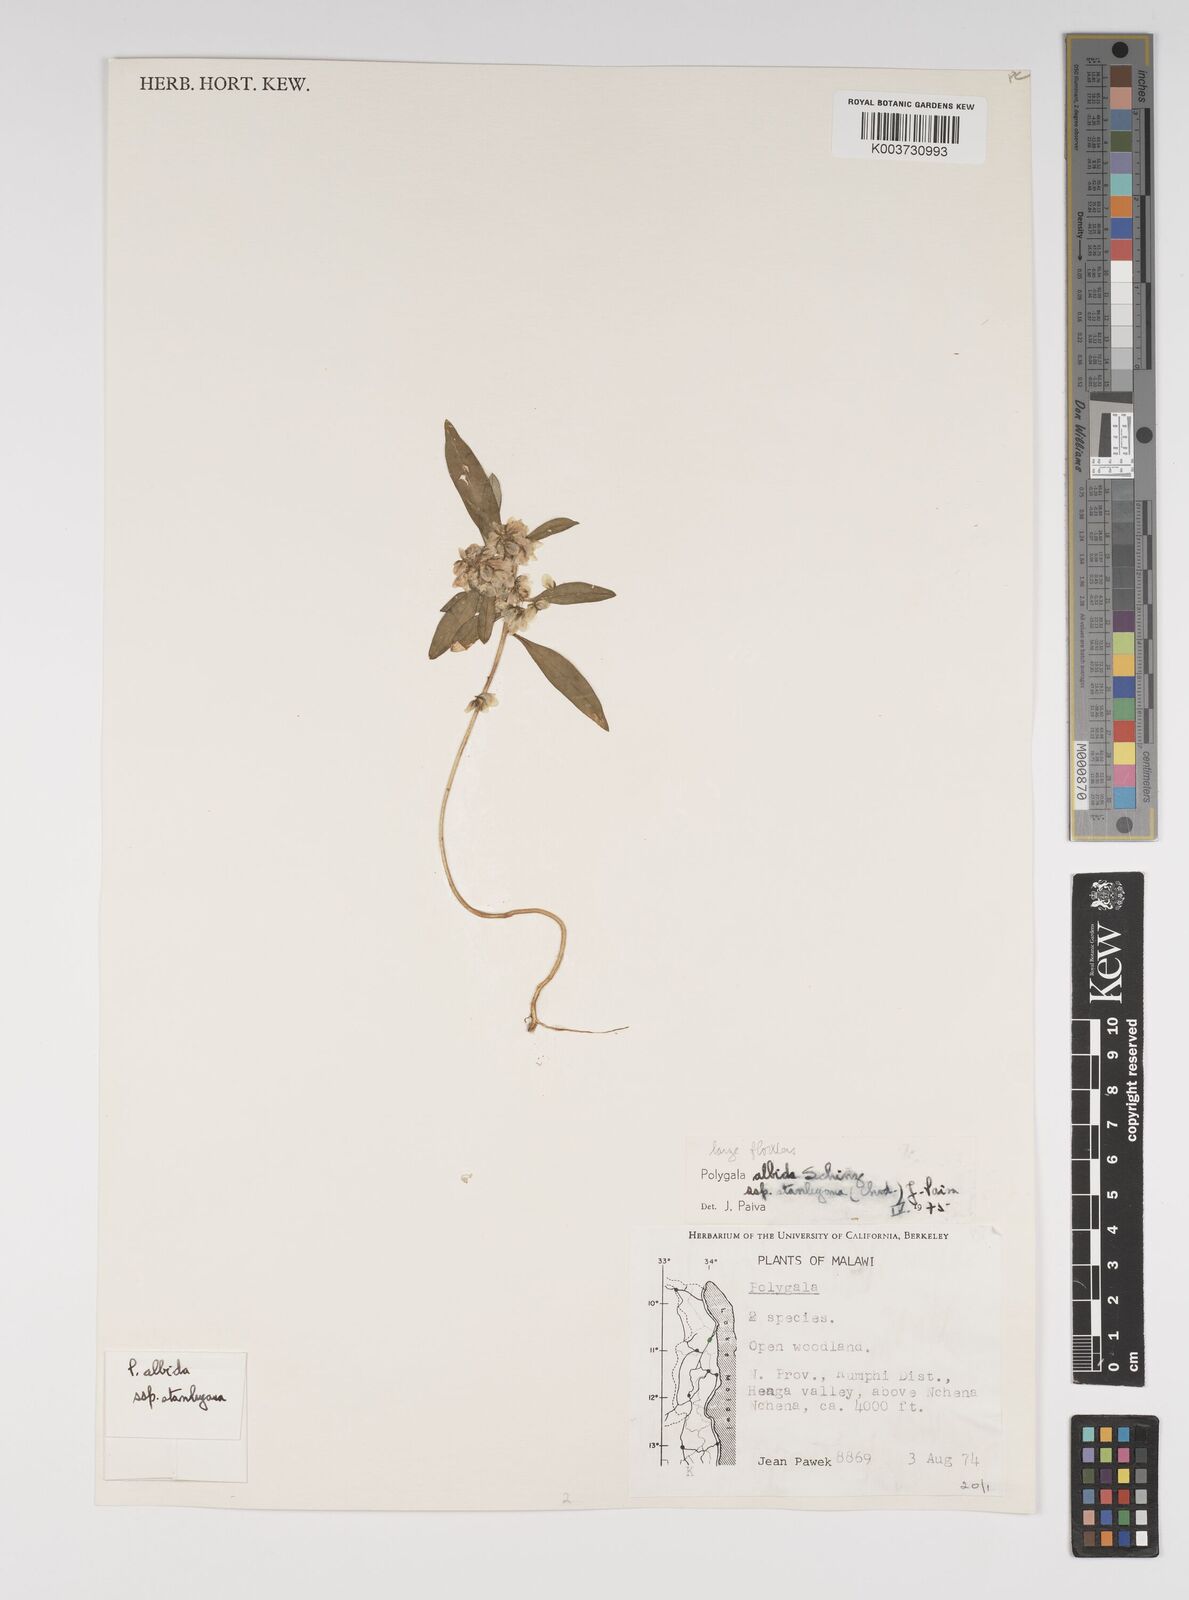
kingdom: Plantae
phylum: Tracheophyta
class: Magnoliopsida
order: Fabales
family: Polygalaceae
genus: Polygala
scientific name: Polygala albida
